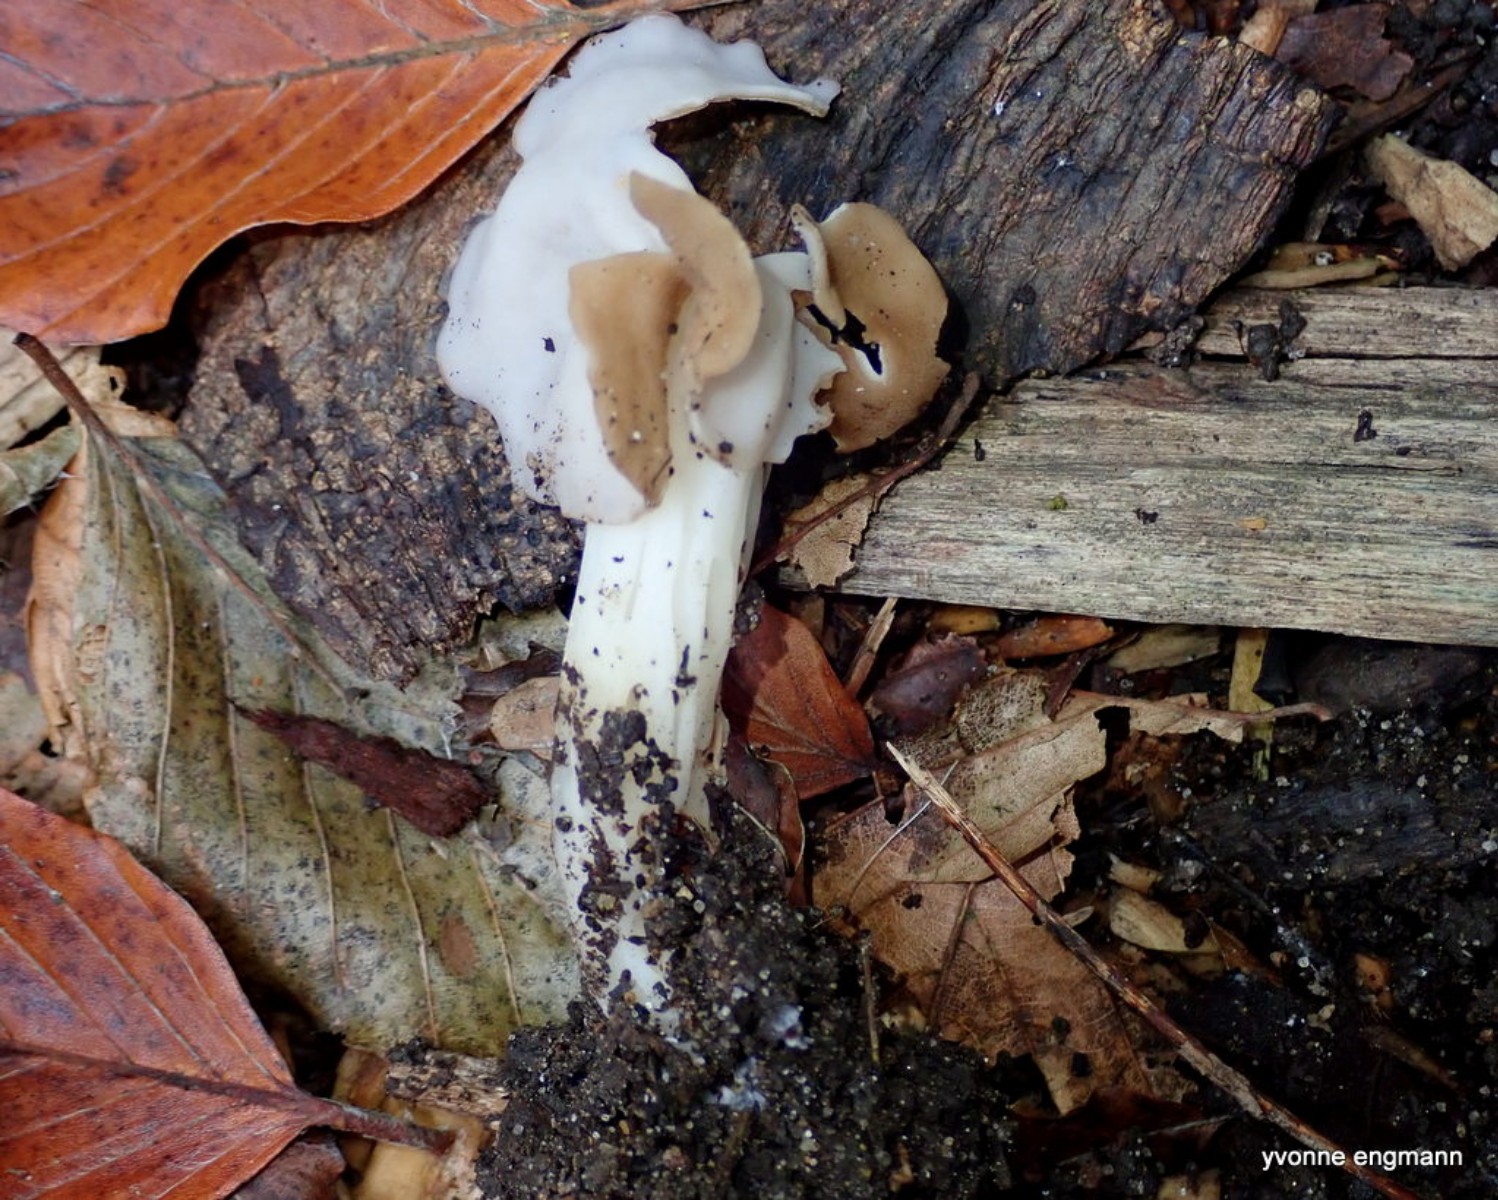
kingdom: Fungi
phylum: Ascomycota
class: Pezizomycetes
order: Pezizales
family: Helvellaceae
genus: Helvella
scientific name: Helvella crispa
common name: kruset foldhat
